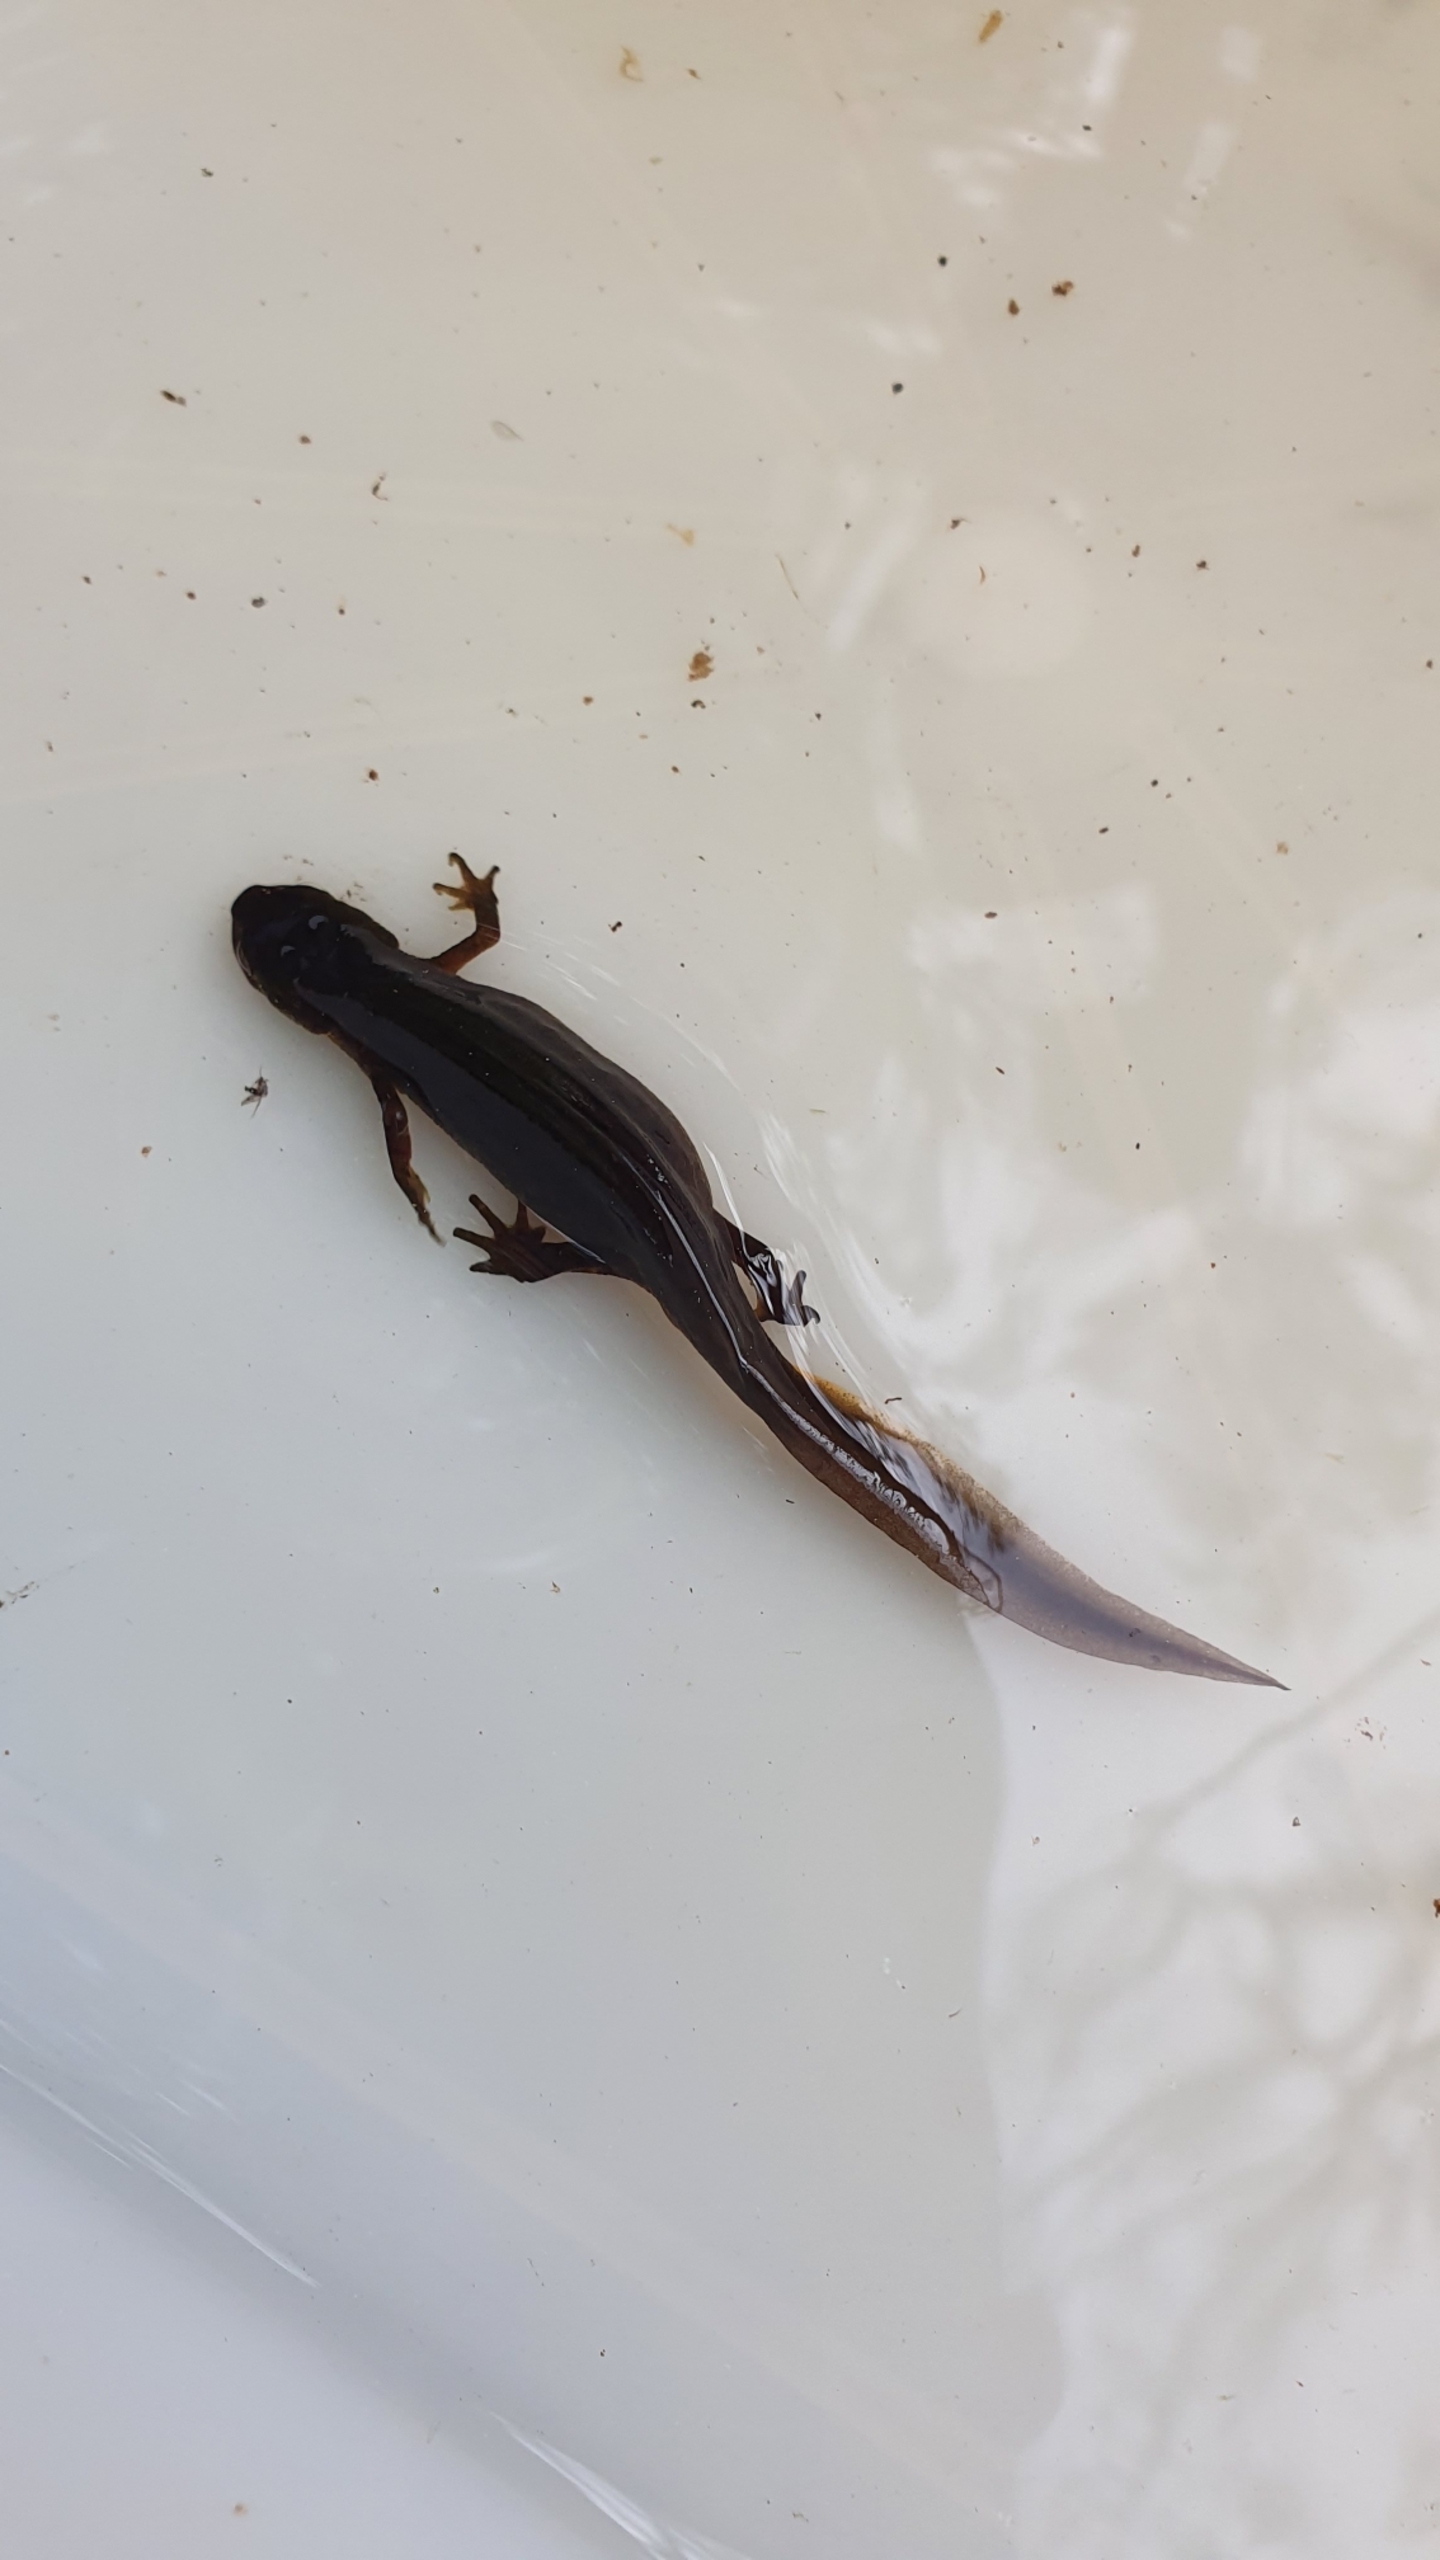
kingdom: Animalia
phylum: Chordata
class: Amphibia
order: Caudata
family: Salamandridae
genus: Lissotriton
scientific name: Lissotriton vulgaris
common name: Lille vandsalamander
